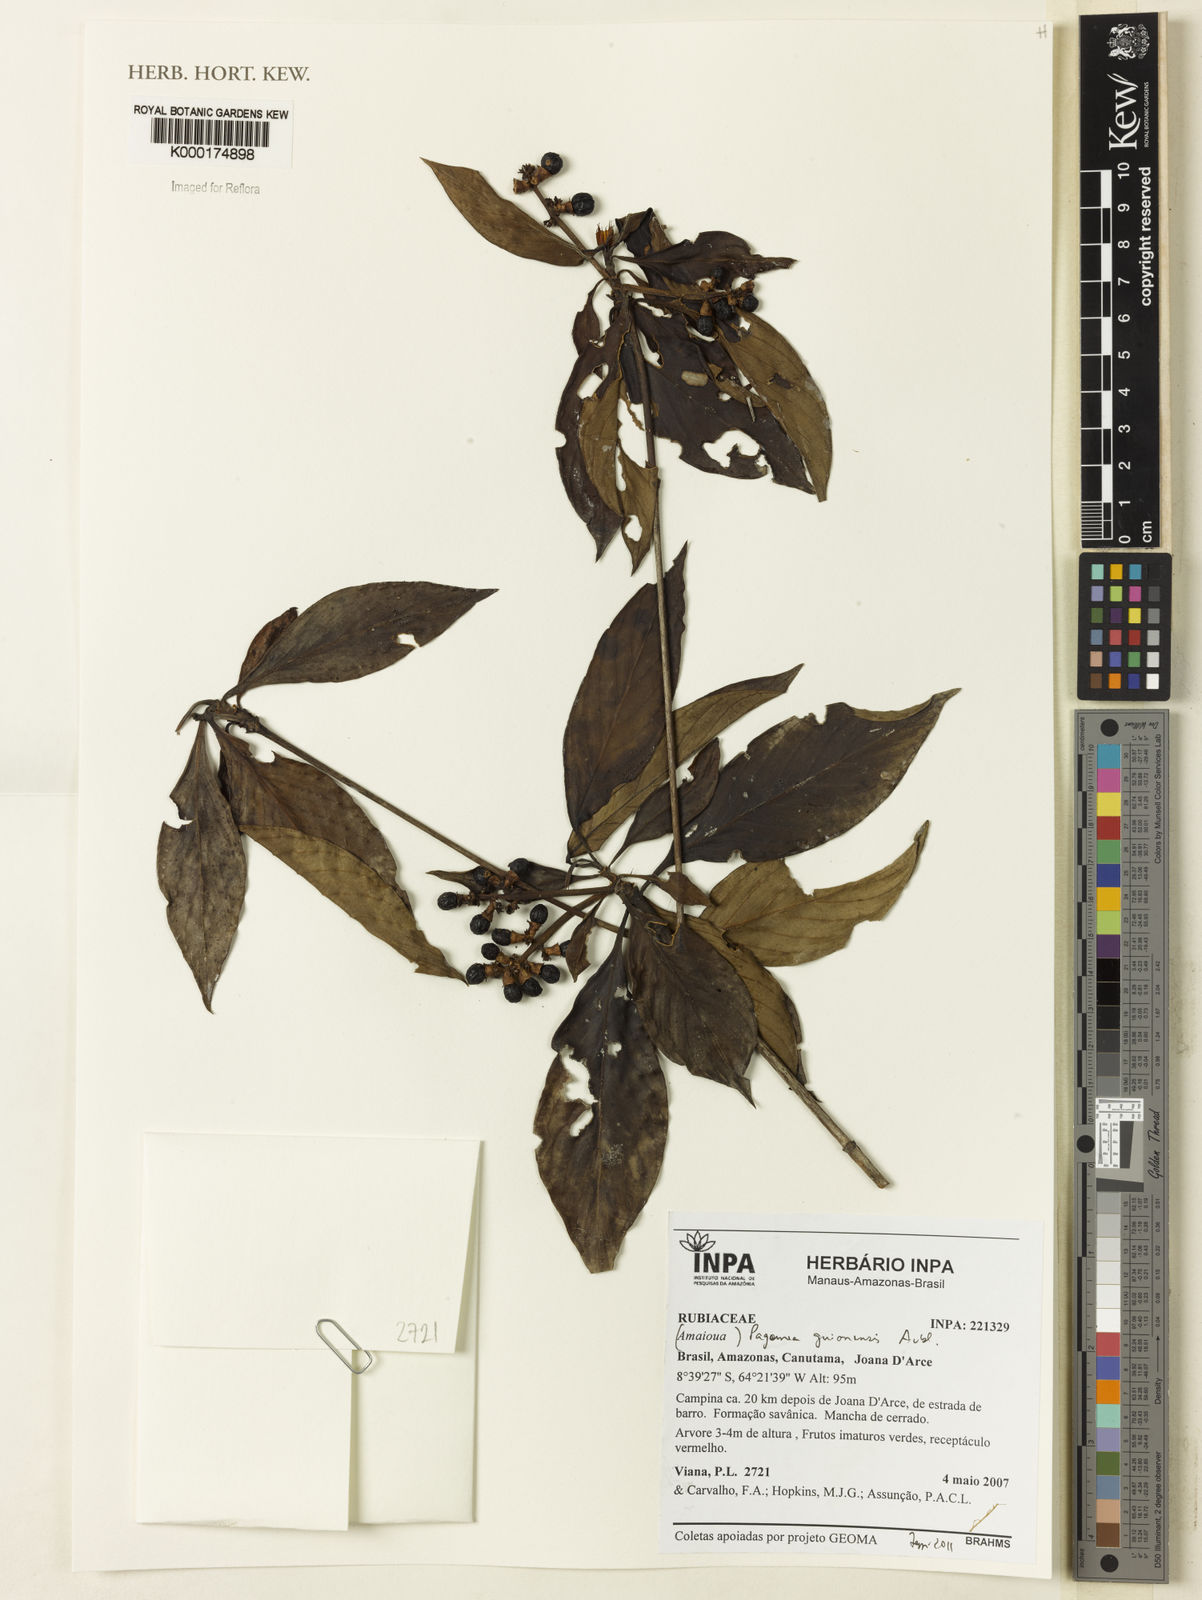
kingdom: Plantae
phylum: Tracheophyta
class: Magnoliopsida
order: Gentianales
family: Rubiaceae
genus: Pagamea
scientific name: Pagamea guianensis
